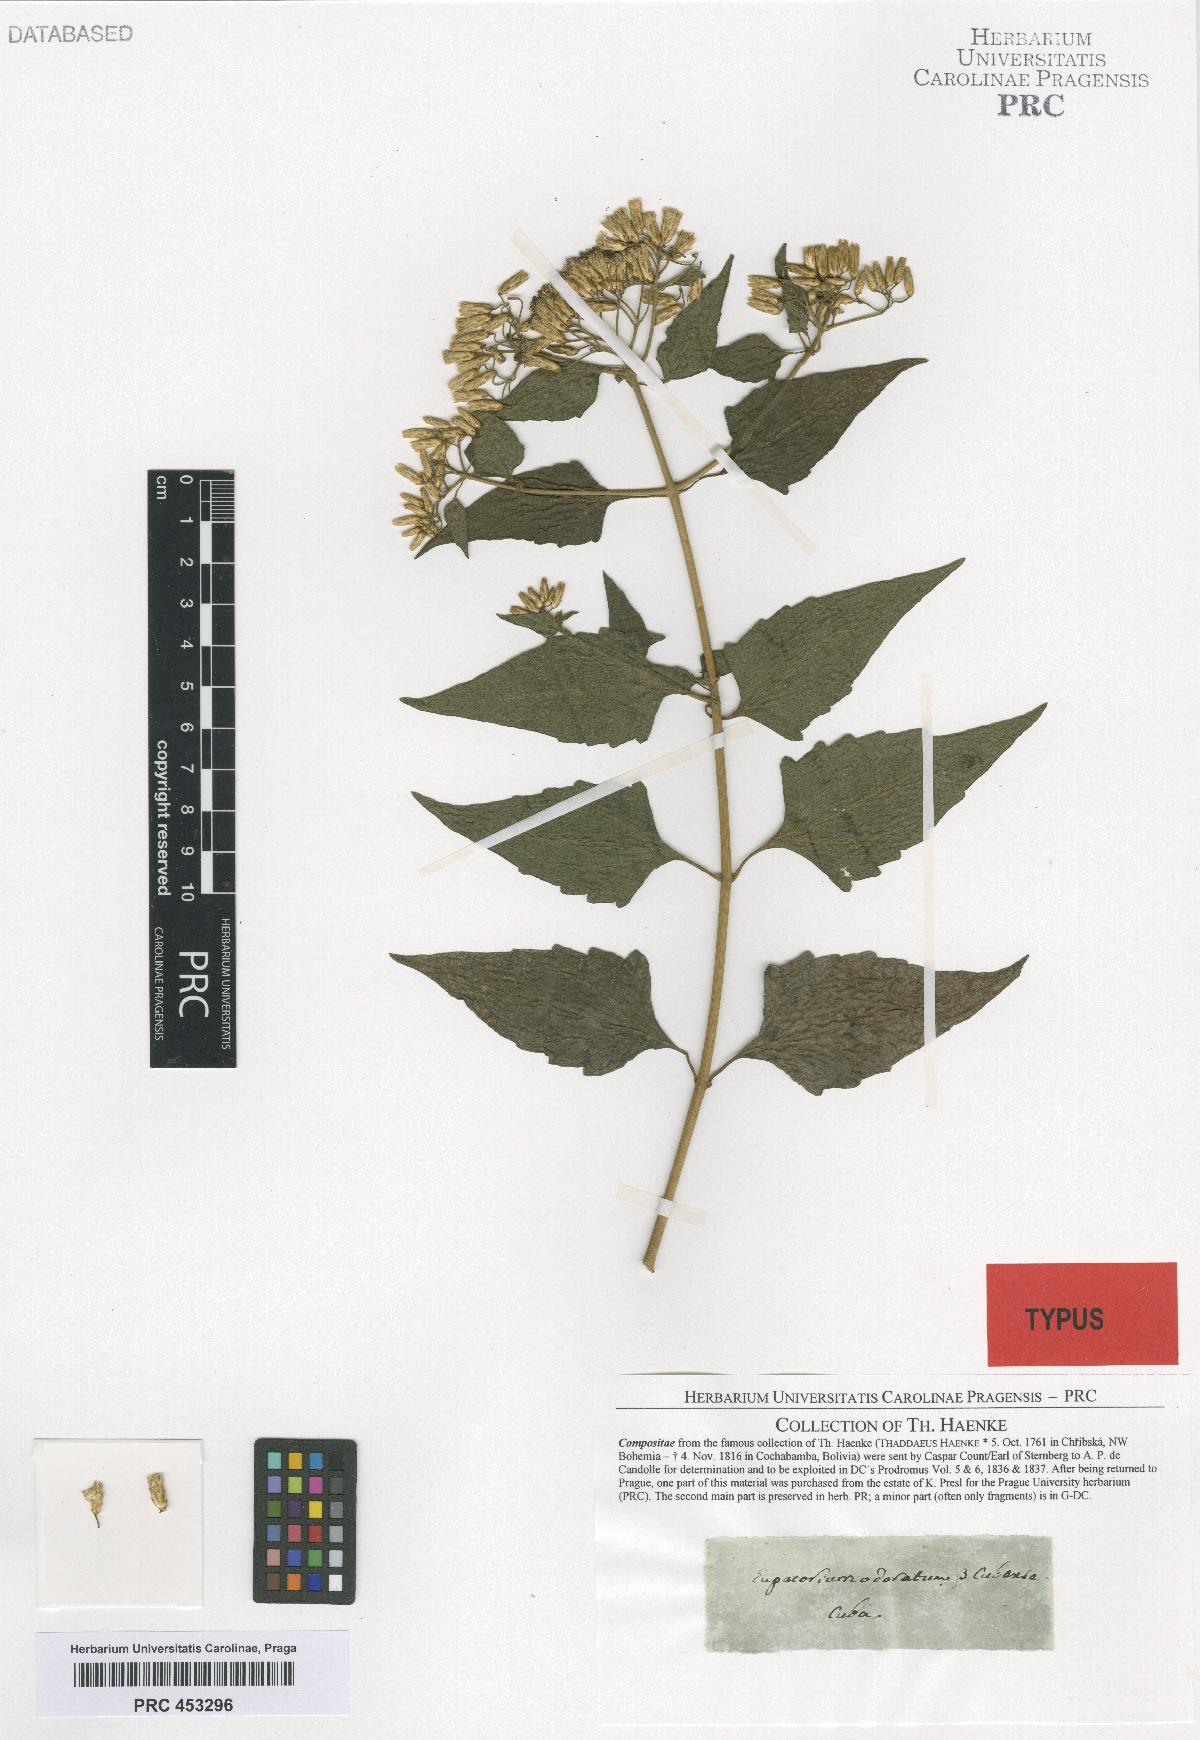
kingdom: Plantae
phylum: Tracheophyta
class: Magnoliopsida
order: Asterales
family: Asteraceae
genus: Chromolaena
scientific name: Chromolaena odorata
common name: Siamweed
